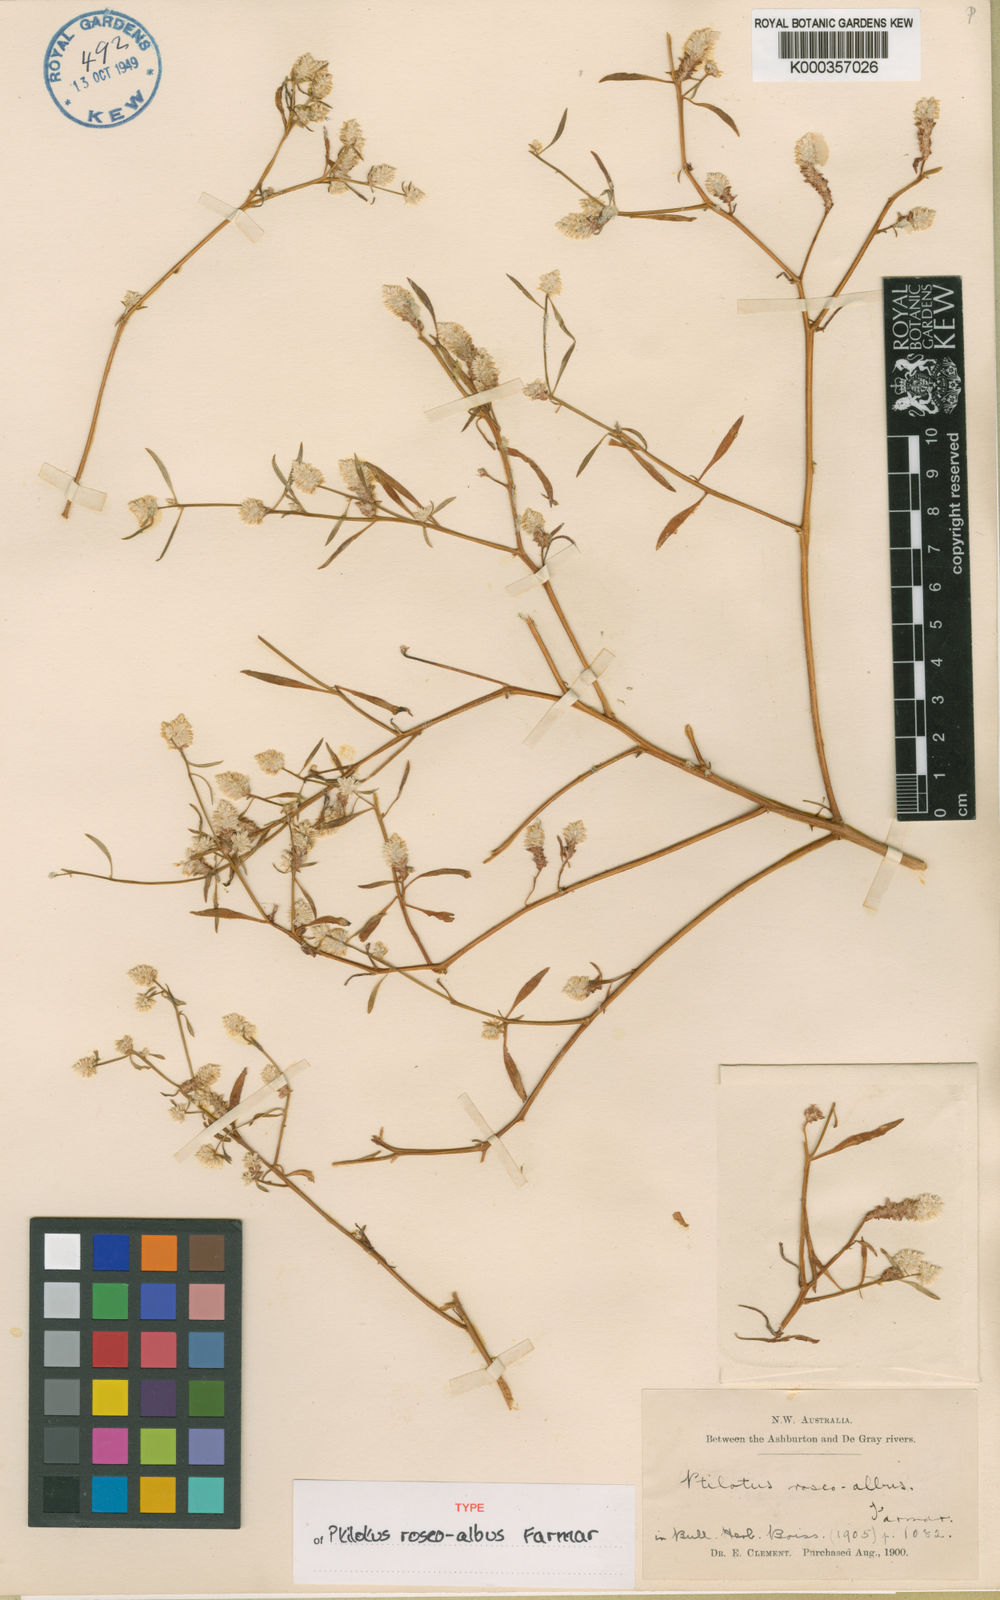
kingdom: Plantae
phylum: Tracheophyta
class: Magnoliopsida
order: Caryophyllales
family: Amaranthaceae
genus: Ptilotus
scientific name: Ptilotus
